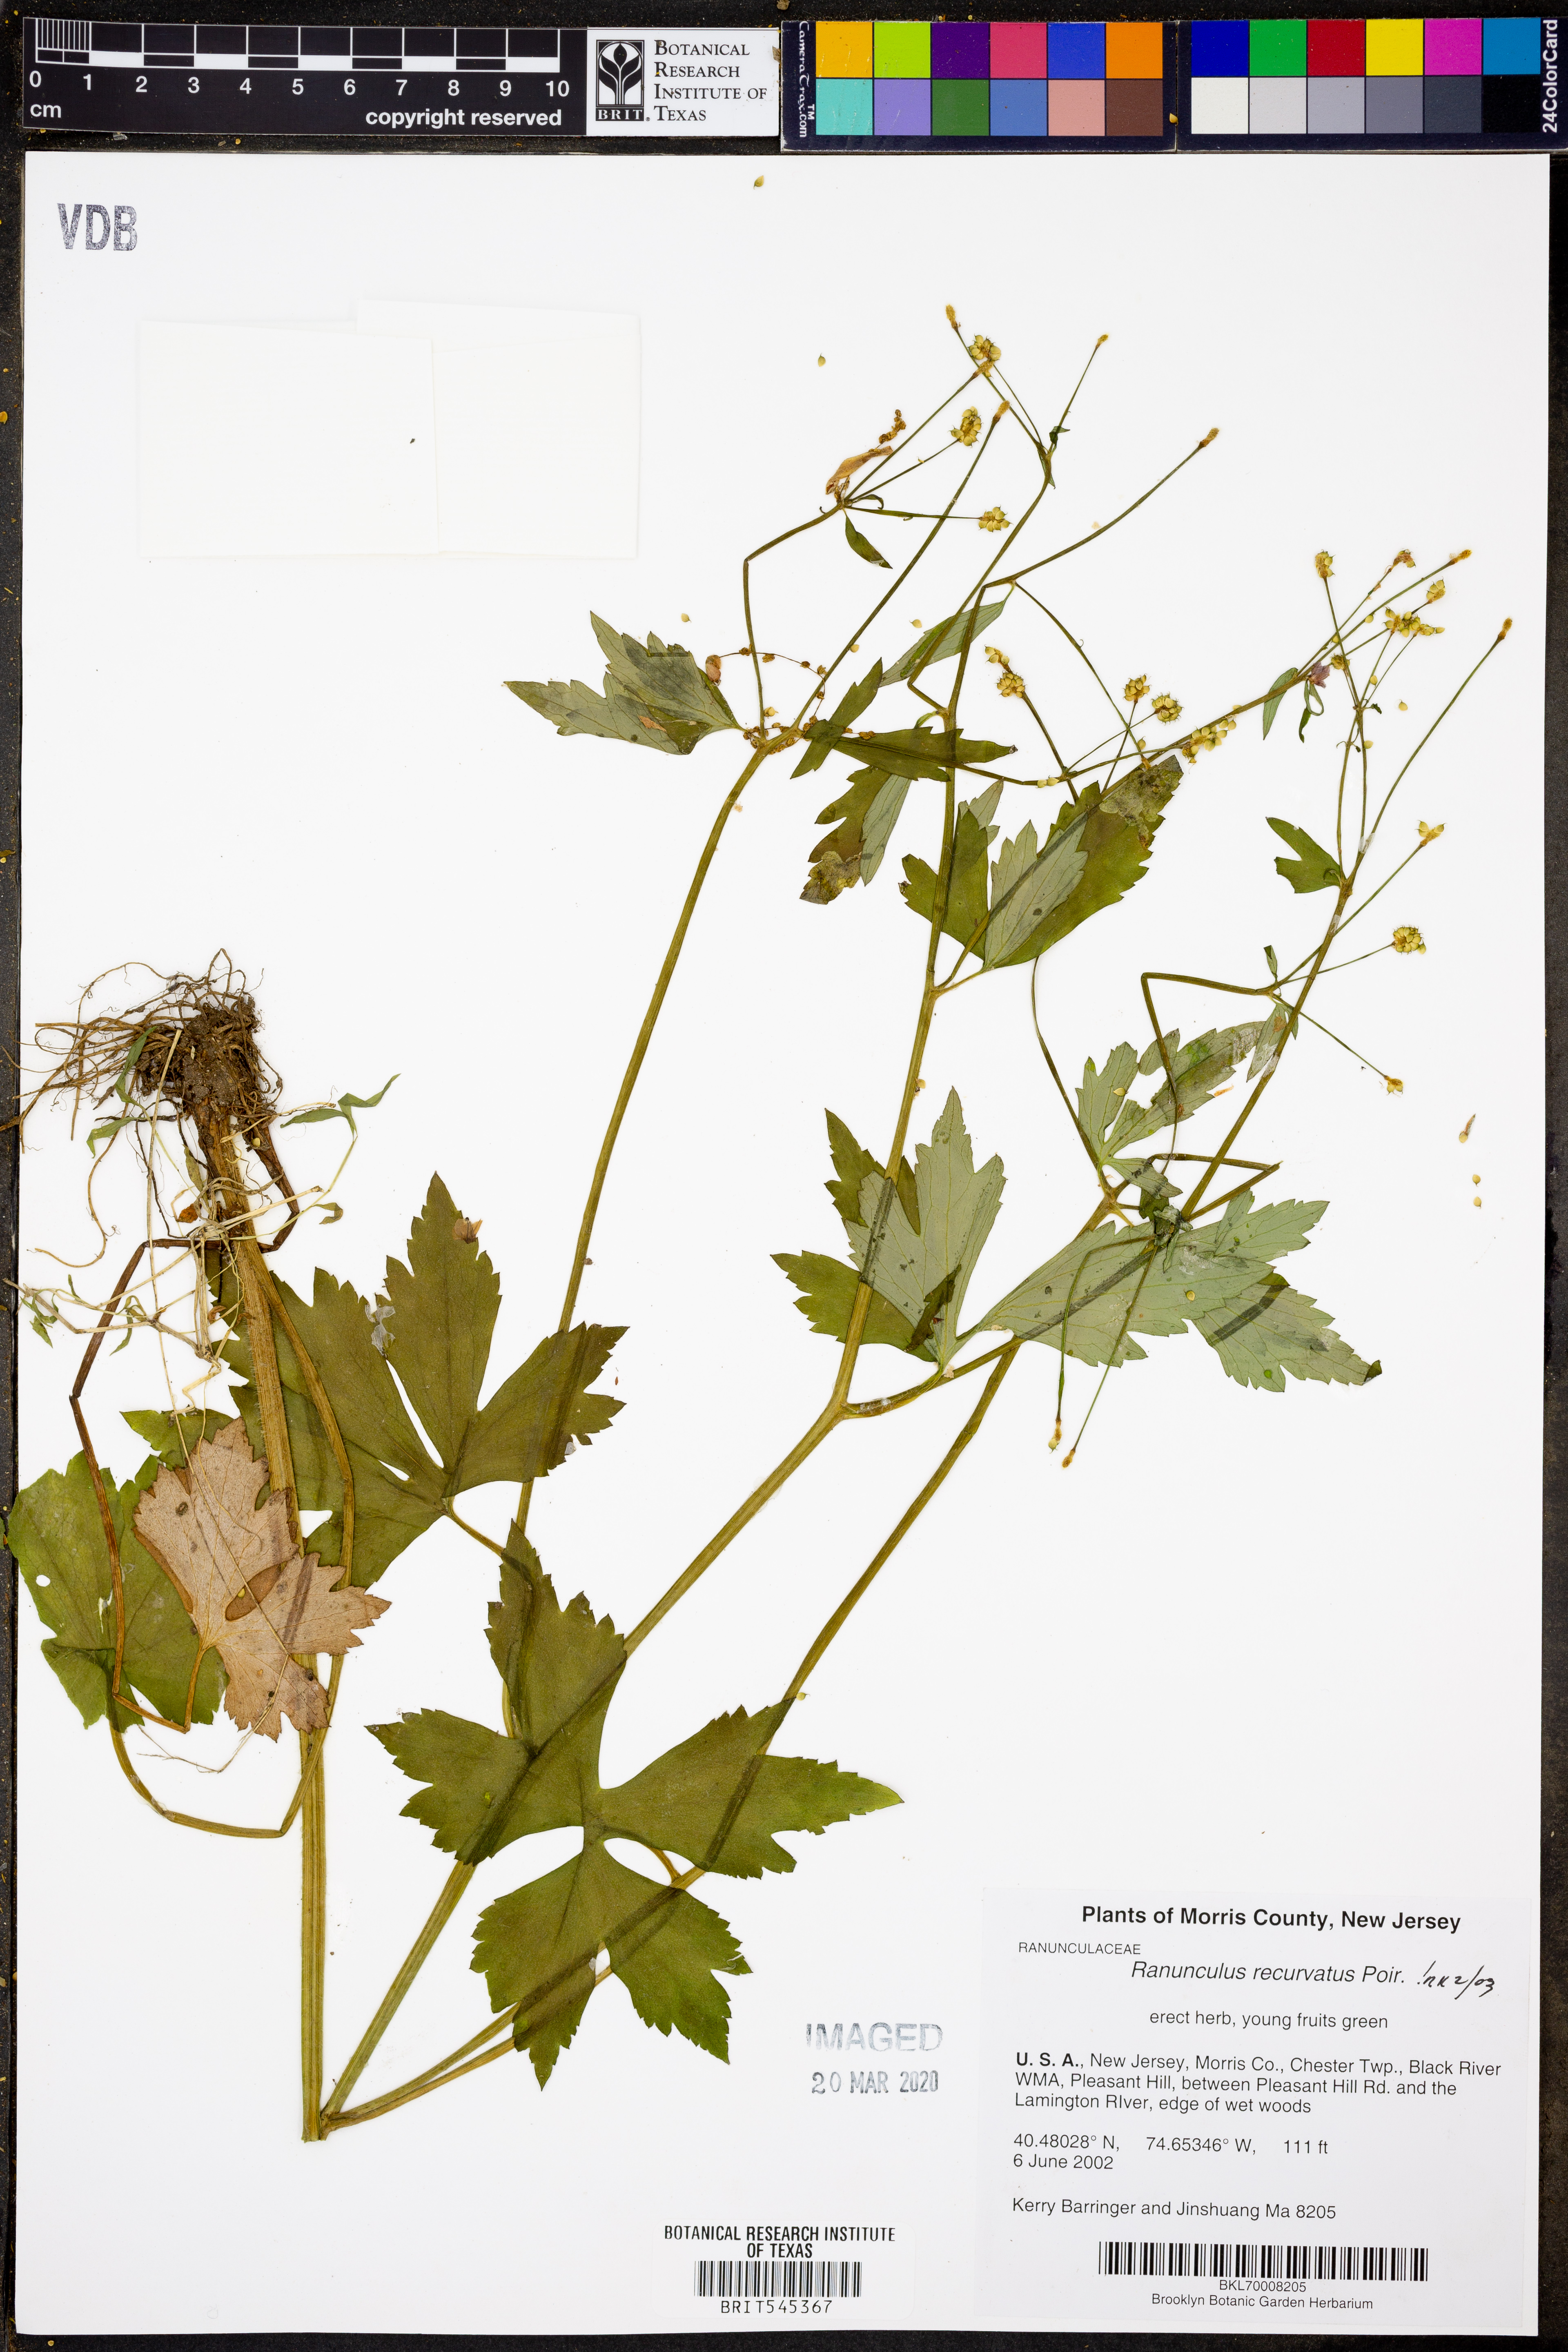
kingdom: Plantae
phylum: Tracheophyta
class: Magnoliopsida
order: Ranunculales
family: Ranunculaceae
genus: Ranunculus
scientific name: Ranunculus recurvatus
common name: Blisterwort
